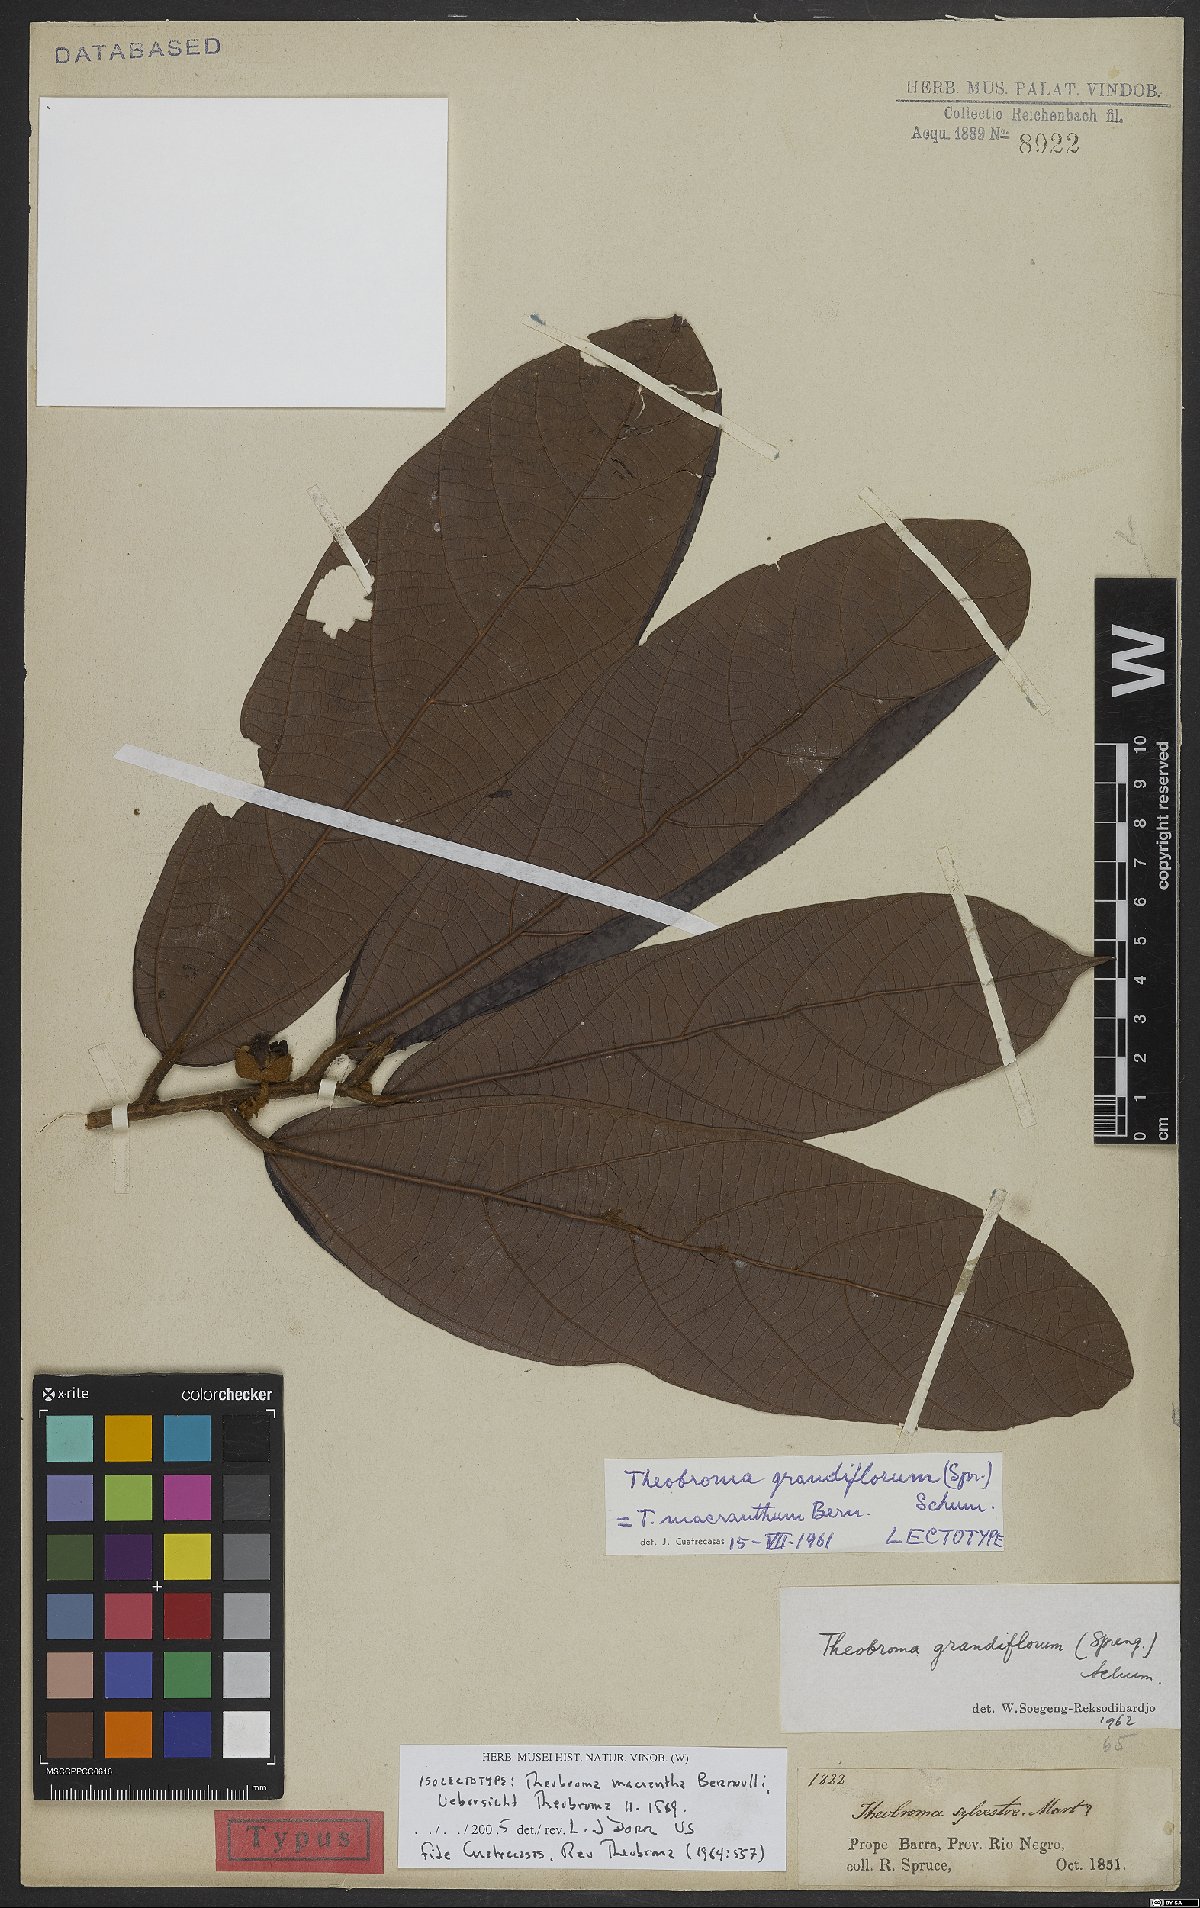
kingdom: Plantae
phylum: Tracheophyta
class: Magnoliopsida
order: Malvales
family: Malvaceae
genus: Theobroma
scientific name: Theobroma grandiflorum
